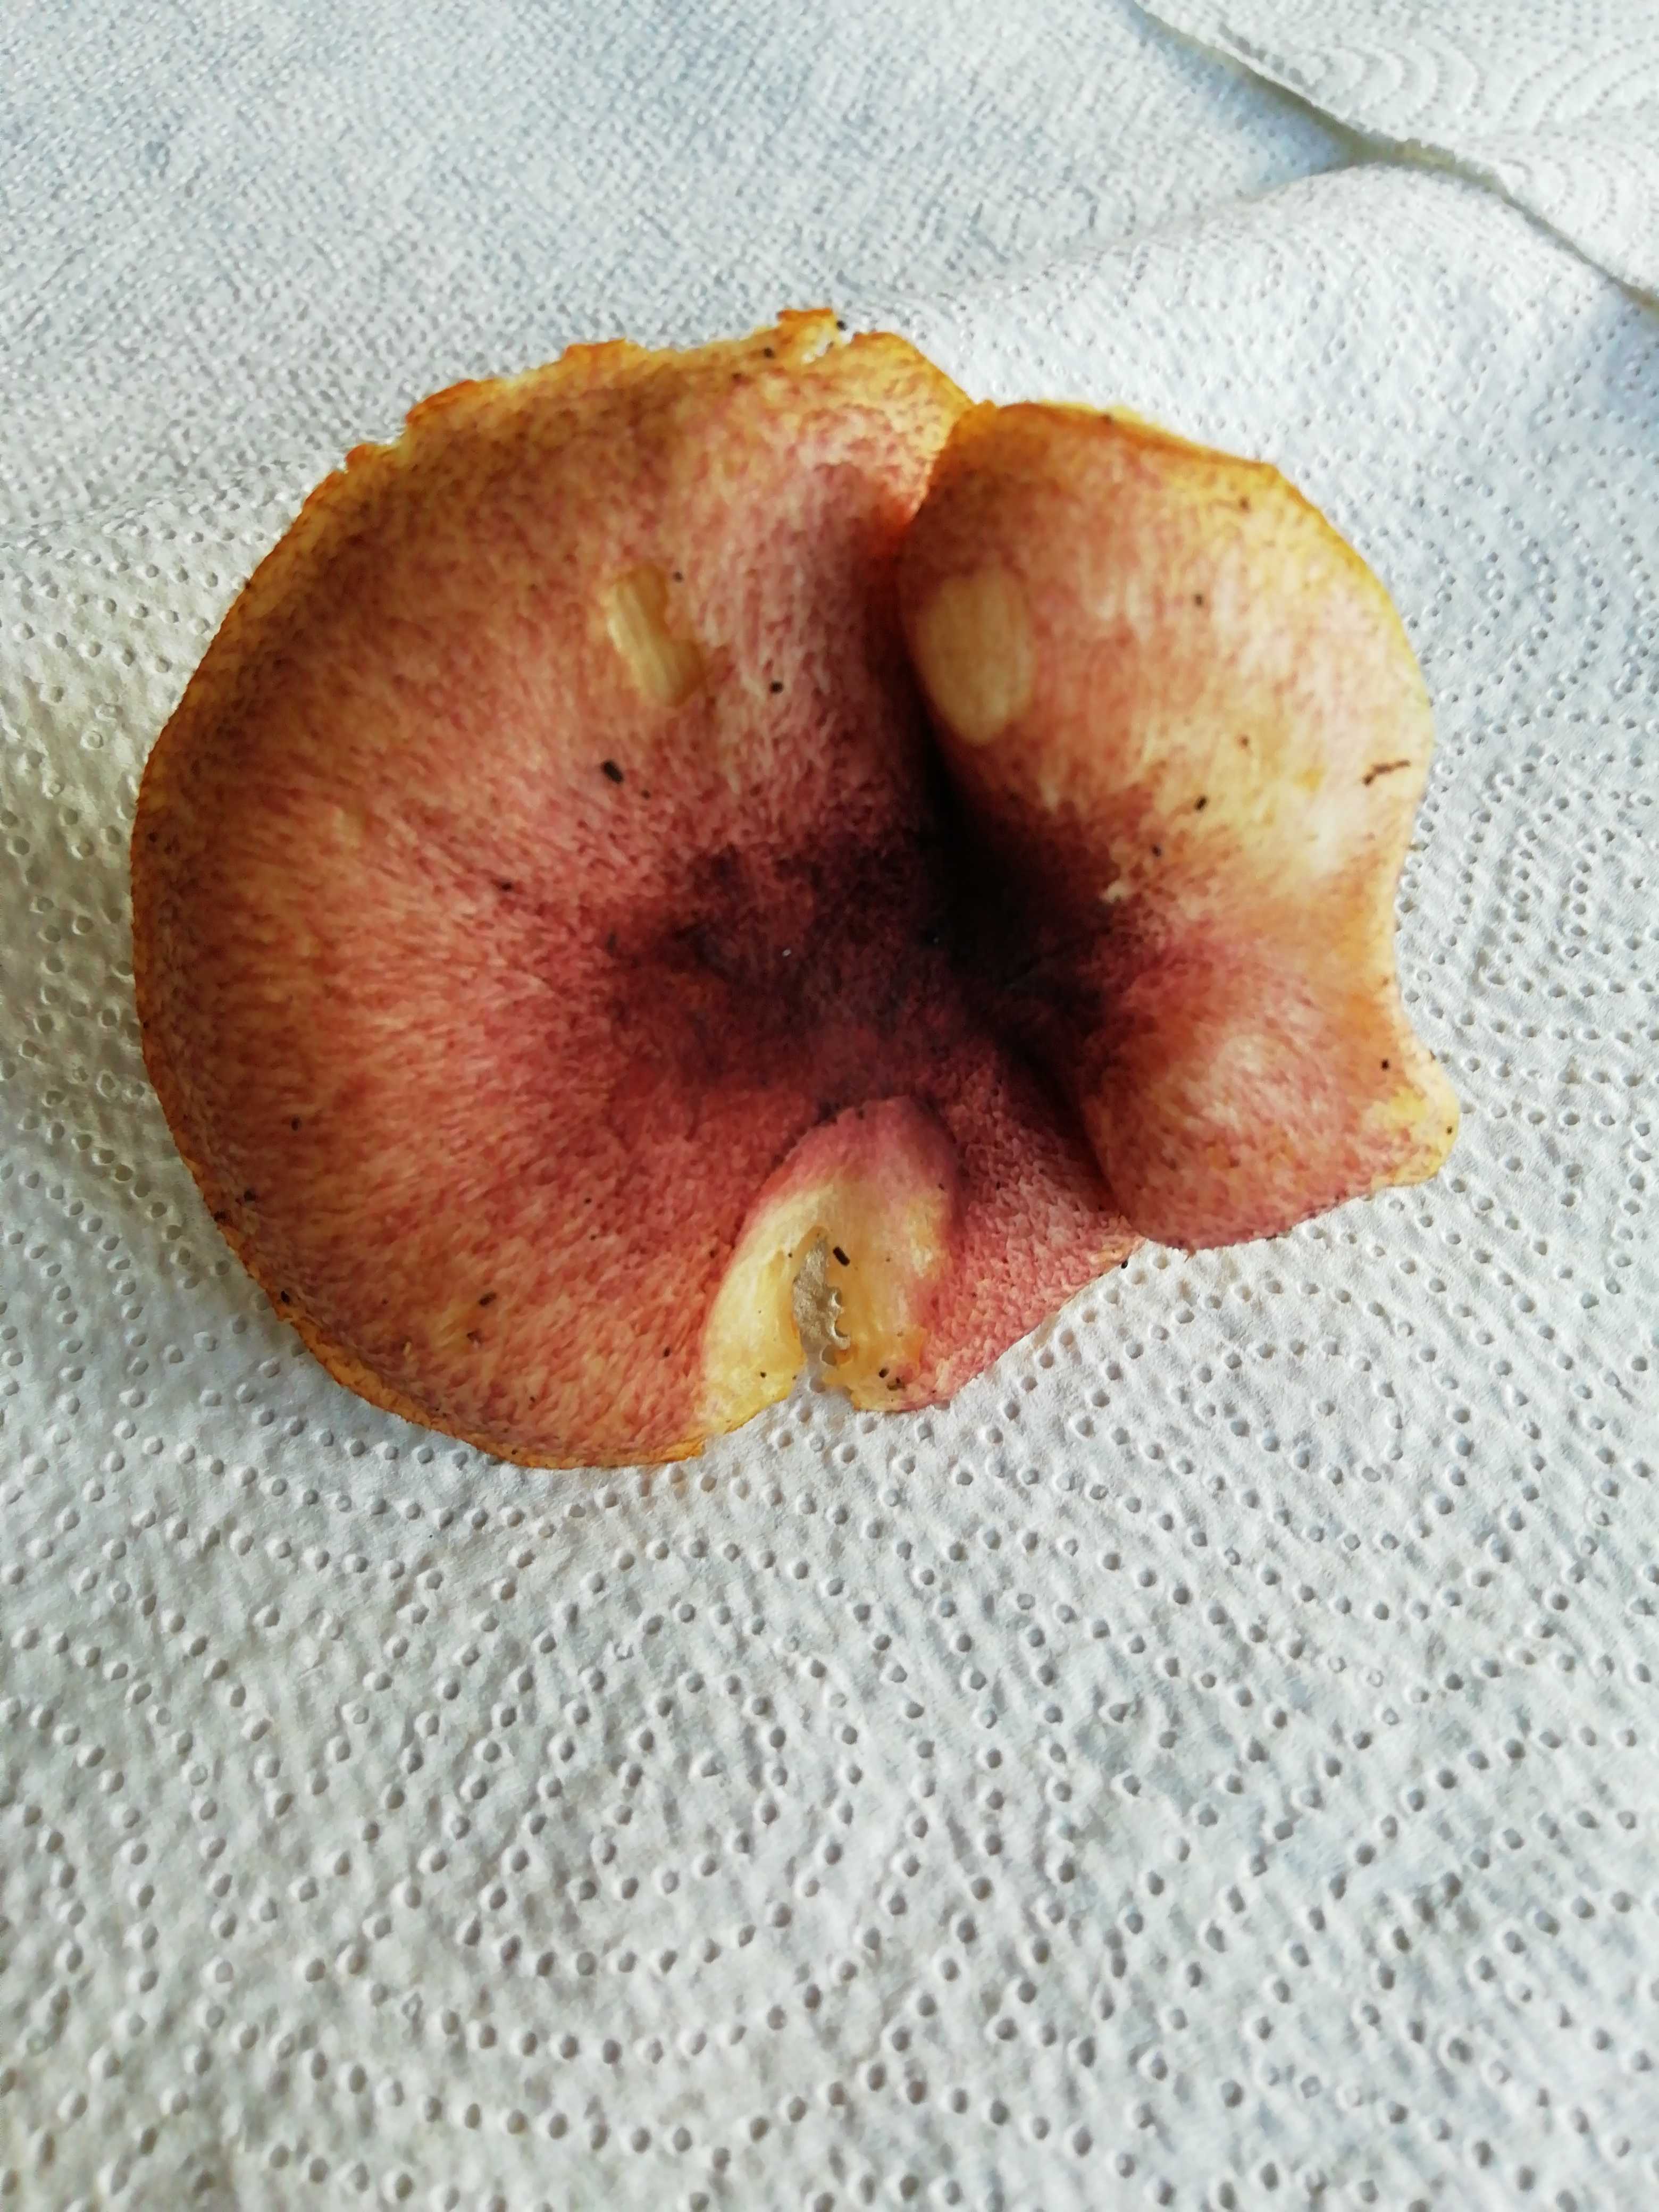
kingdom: Fungi
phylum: Basidiomycota
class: Agaricomycetes
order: Agaricales
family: Tricholomataceae
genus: Tricholomopsis
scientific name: Tricholomopsis rutilans
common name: purpur-væbnerhat
